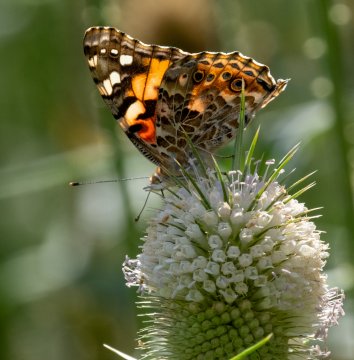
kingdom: Animalia
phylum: Arthropoda
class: Insecta
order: Lepidoptera
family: Nymphalidae
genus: Vanessa
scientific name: Vanessa cardui
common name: Painted Lady
